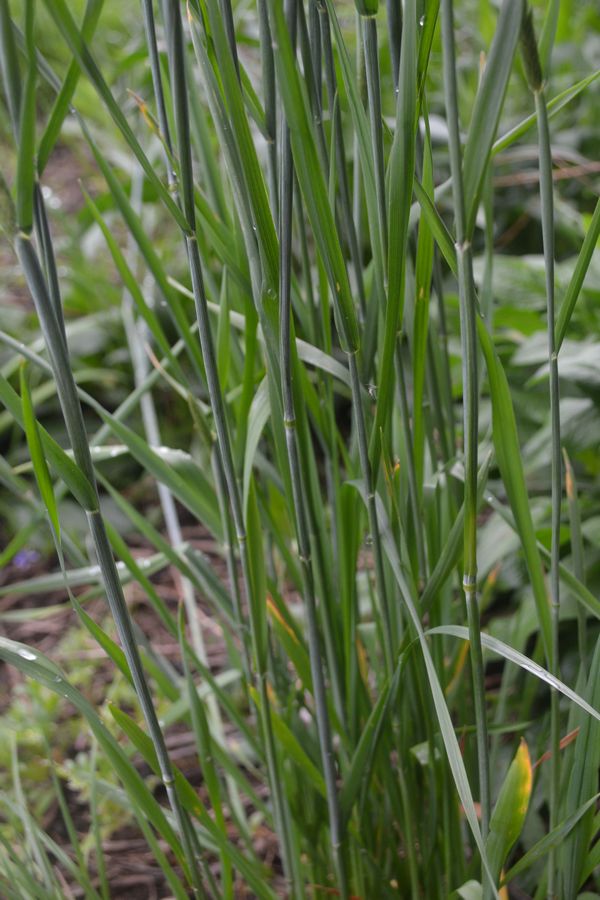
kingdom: Plantae
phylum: Tracheophyta
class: Liliopsida
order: Poales
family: Poaceae
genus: Alopecurus
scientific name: Alopecurus pratensis
